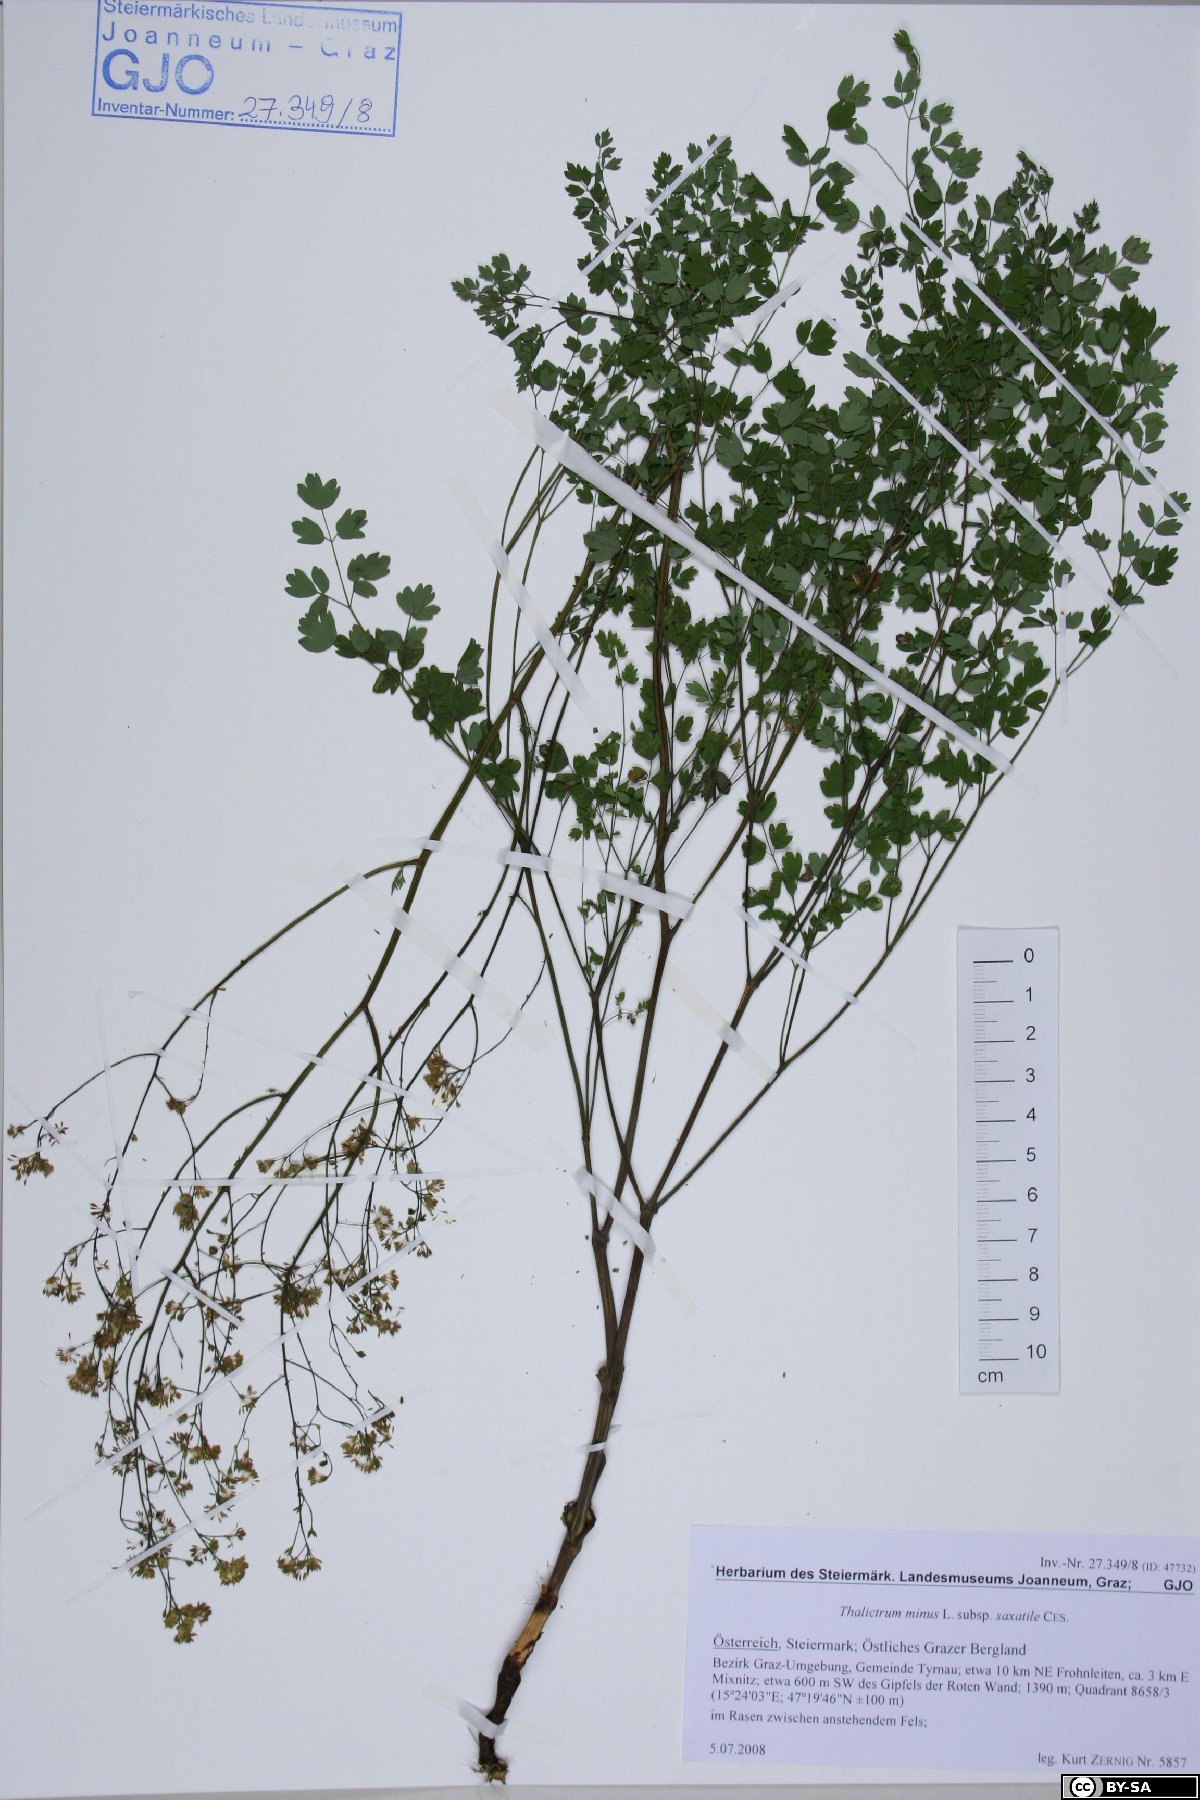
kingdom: Plantae
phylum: Tracheophyta
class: Magnoliopsida
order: Ranunculales
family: Ranunculaceae
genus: Thalictrum
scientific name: Thalictrum minus
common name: Lesser meadow-rue
